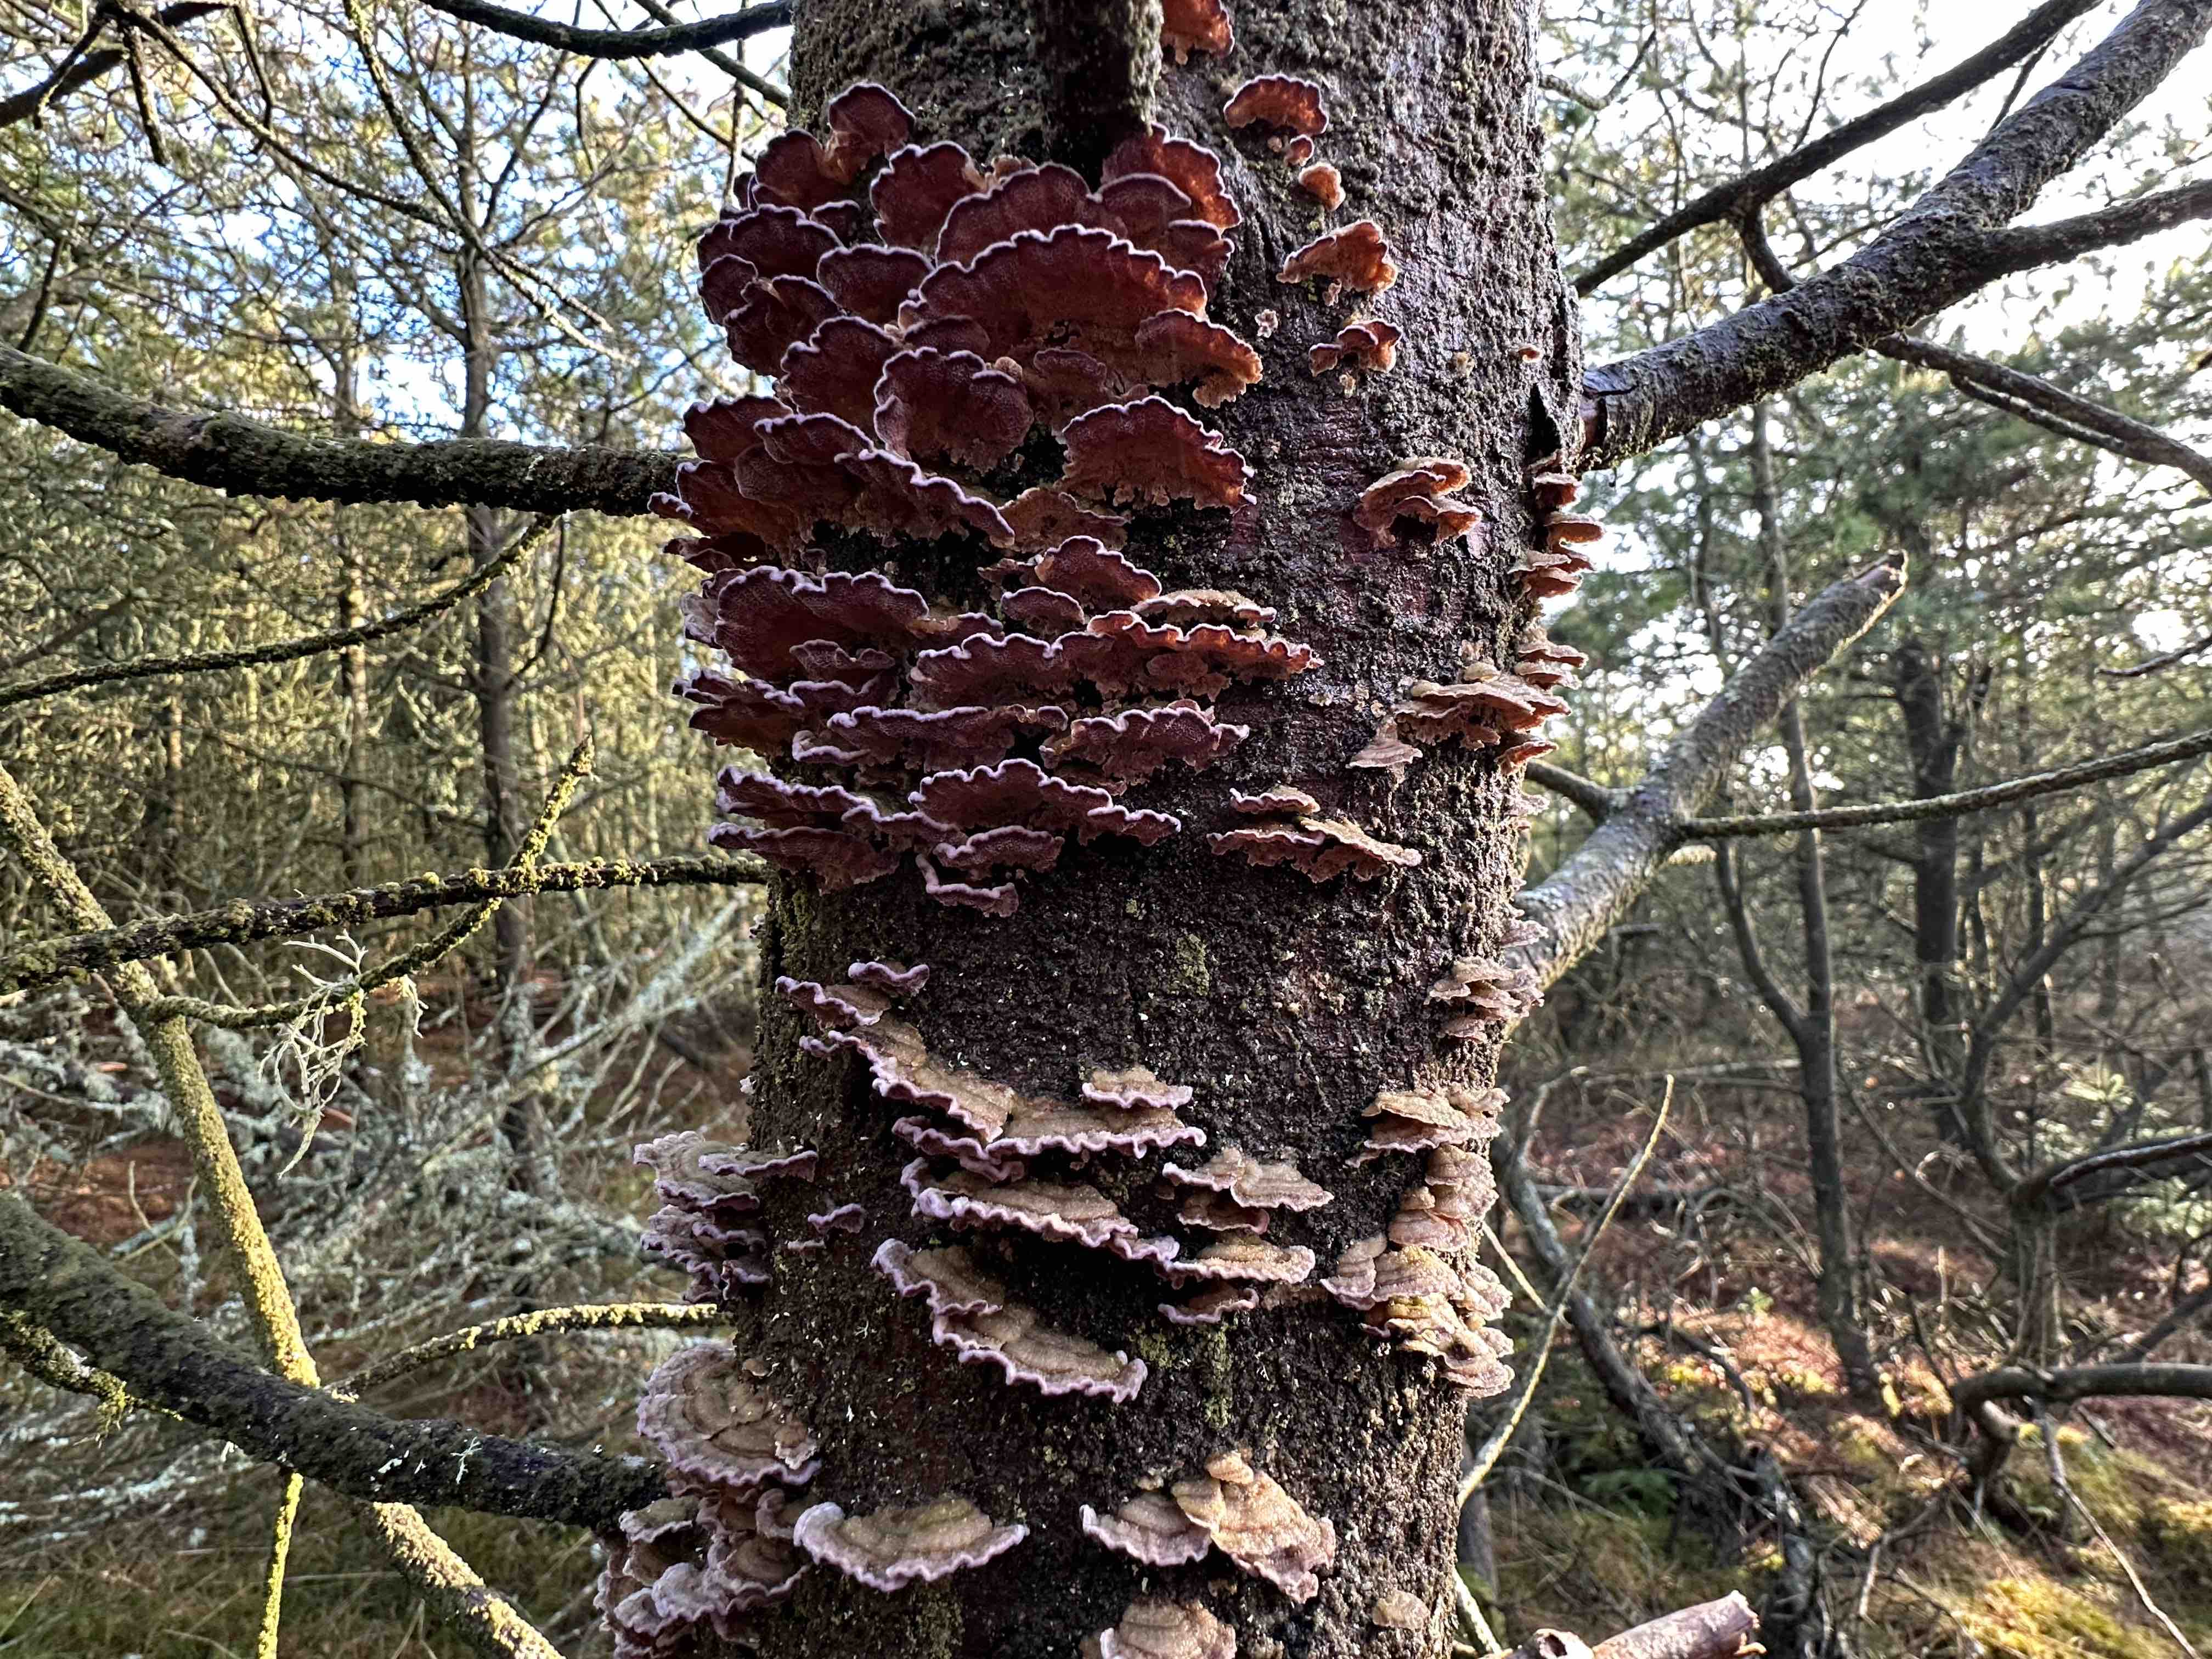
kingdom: Fungi
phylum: Basidiomycota
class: Agaricomycetes
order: Hymenochaetales
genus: Trichaptum
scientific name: Trichaptum fuscoviolaceum
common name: tandet violporesvamp
